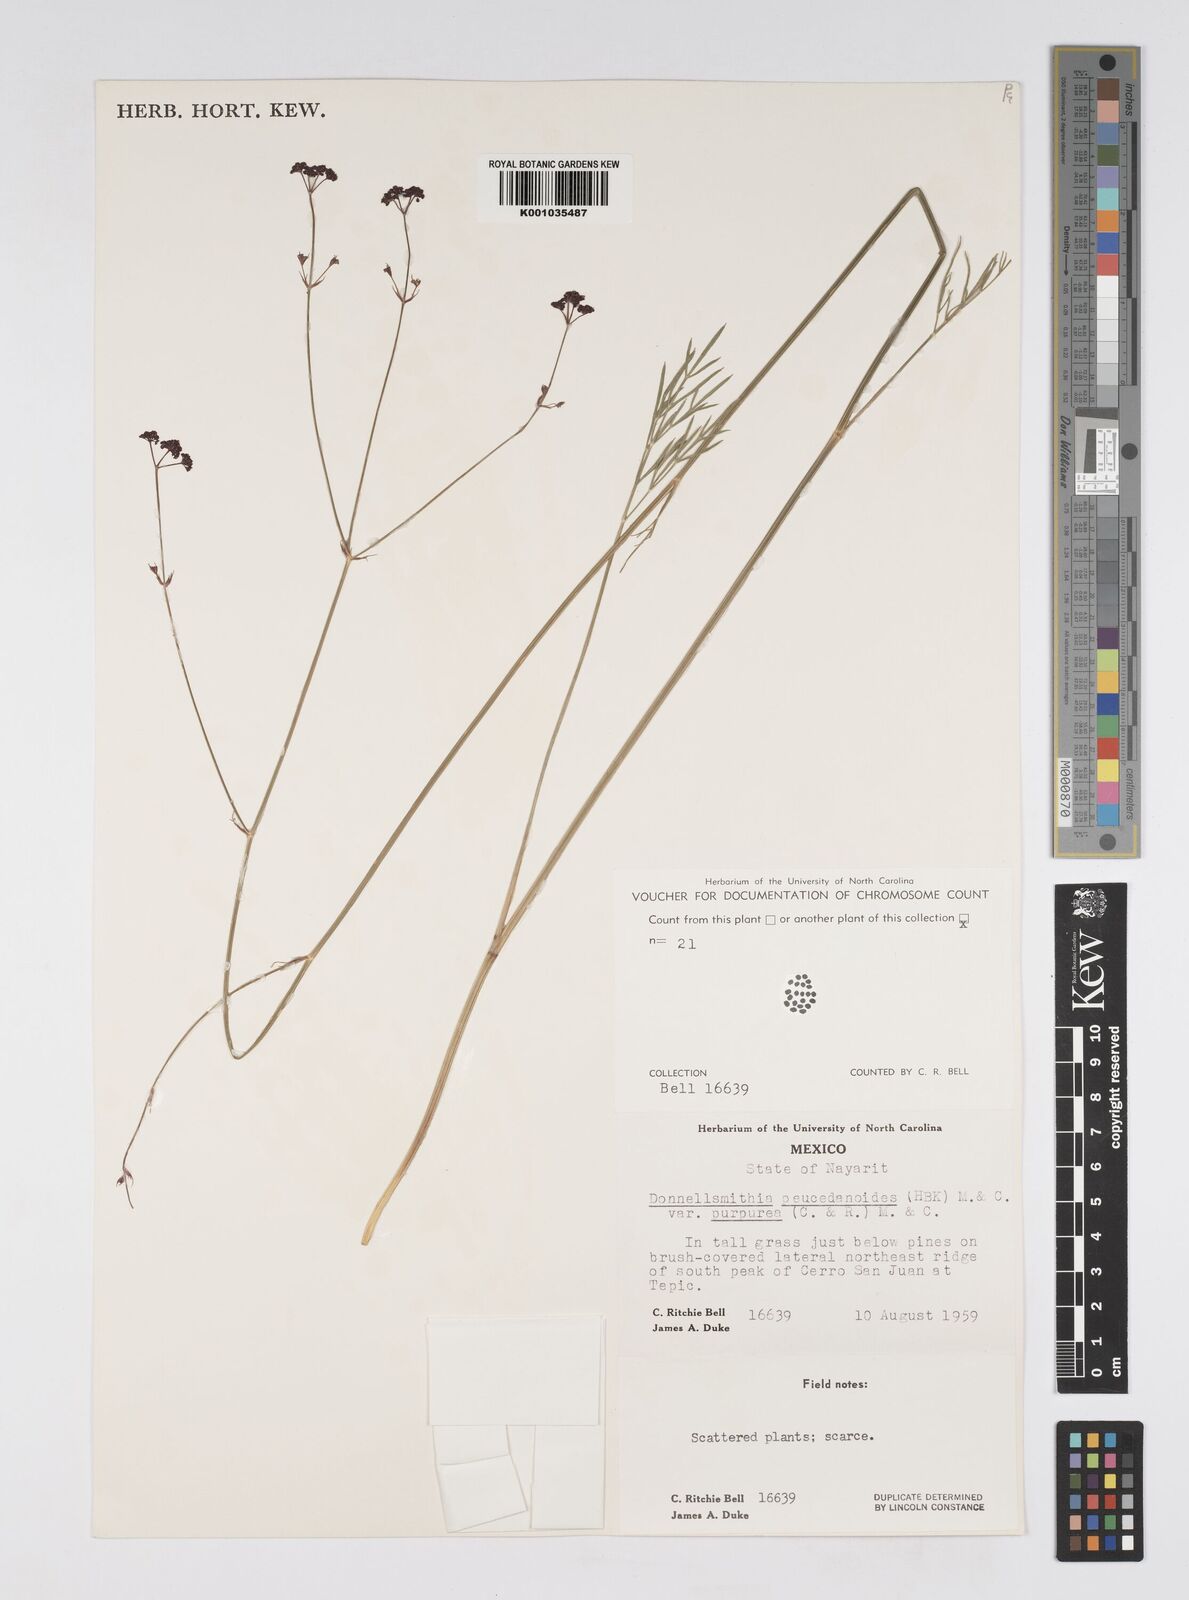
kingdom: Plantae
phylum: Tracheophyta
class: Magnoliopsida
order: Apiales
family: Apiaceae
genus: Donnellsmithia
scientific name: Donnellsmithia juncea
